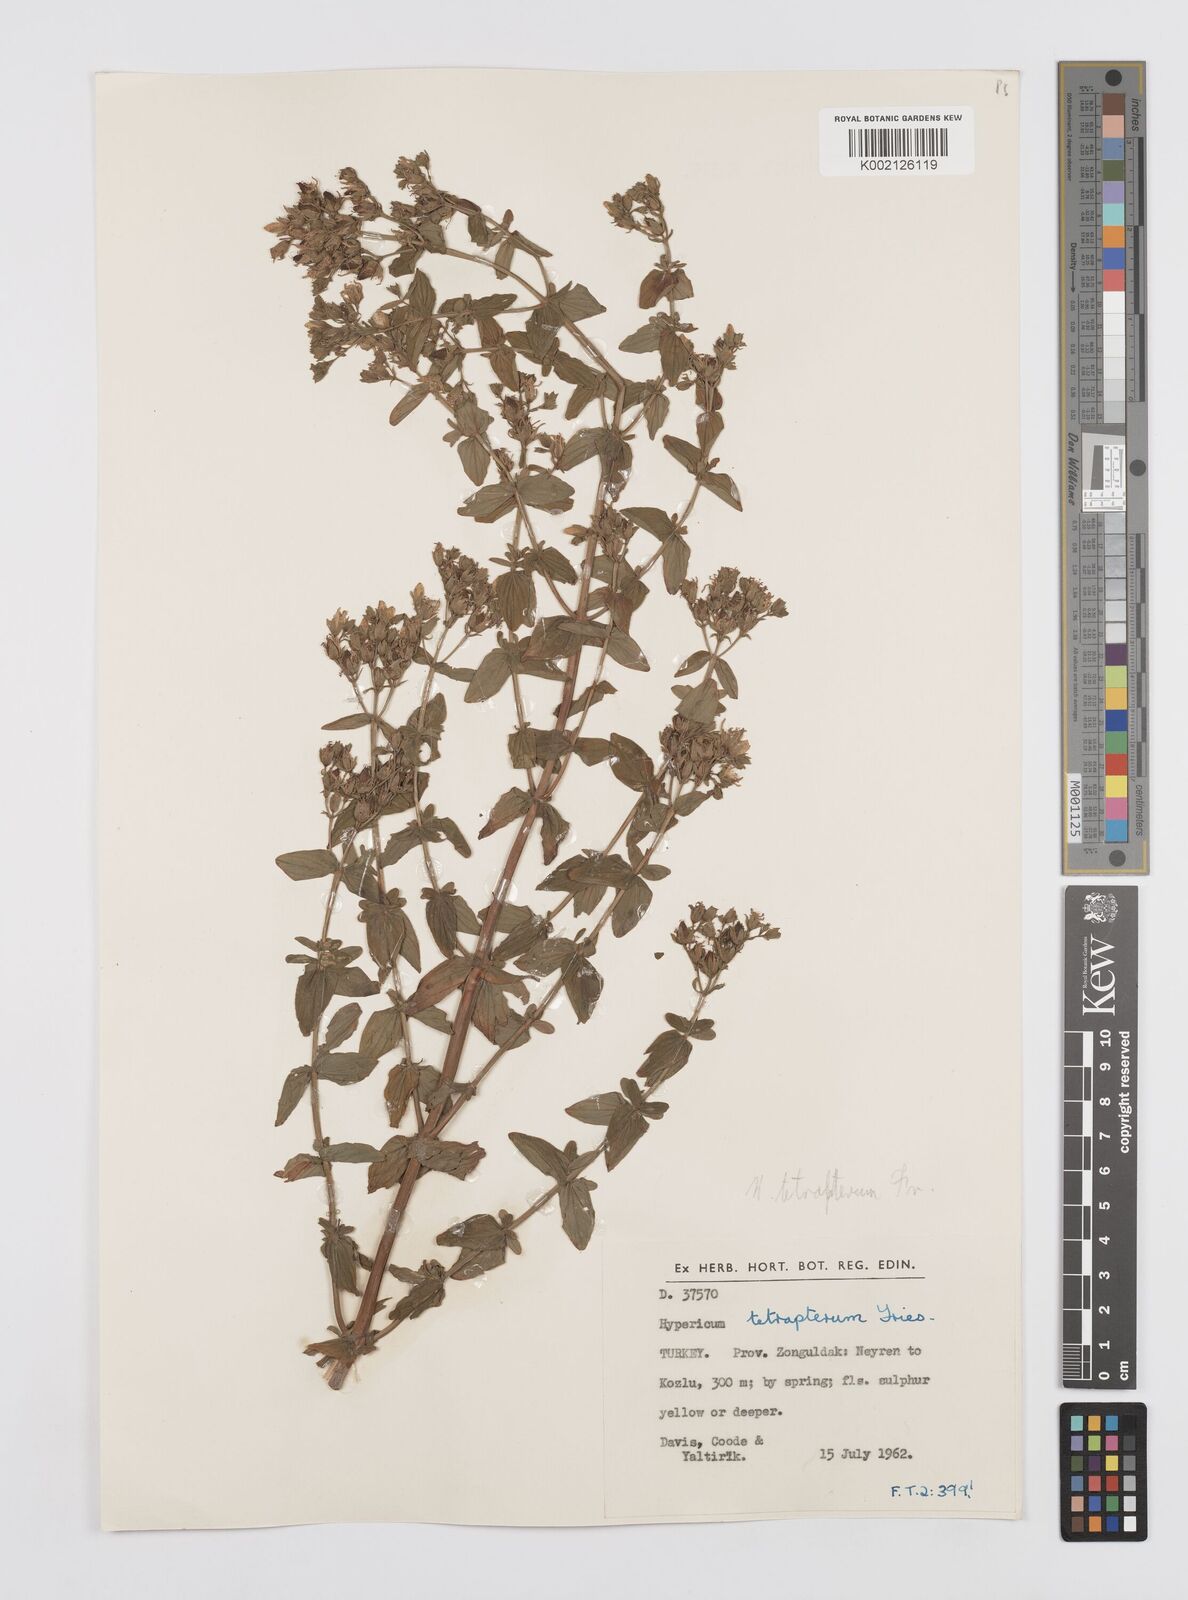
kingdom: Plantae
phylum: Tracheophyta
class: Magnoliopsida
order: Malpighiales
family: Hypericaceae
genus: Hypericum
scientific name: Hypericum tetrapterum
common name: Square-stalked st. john's-wort
